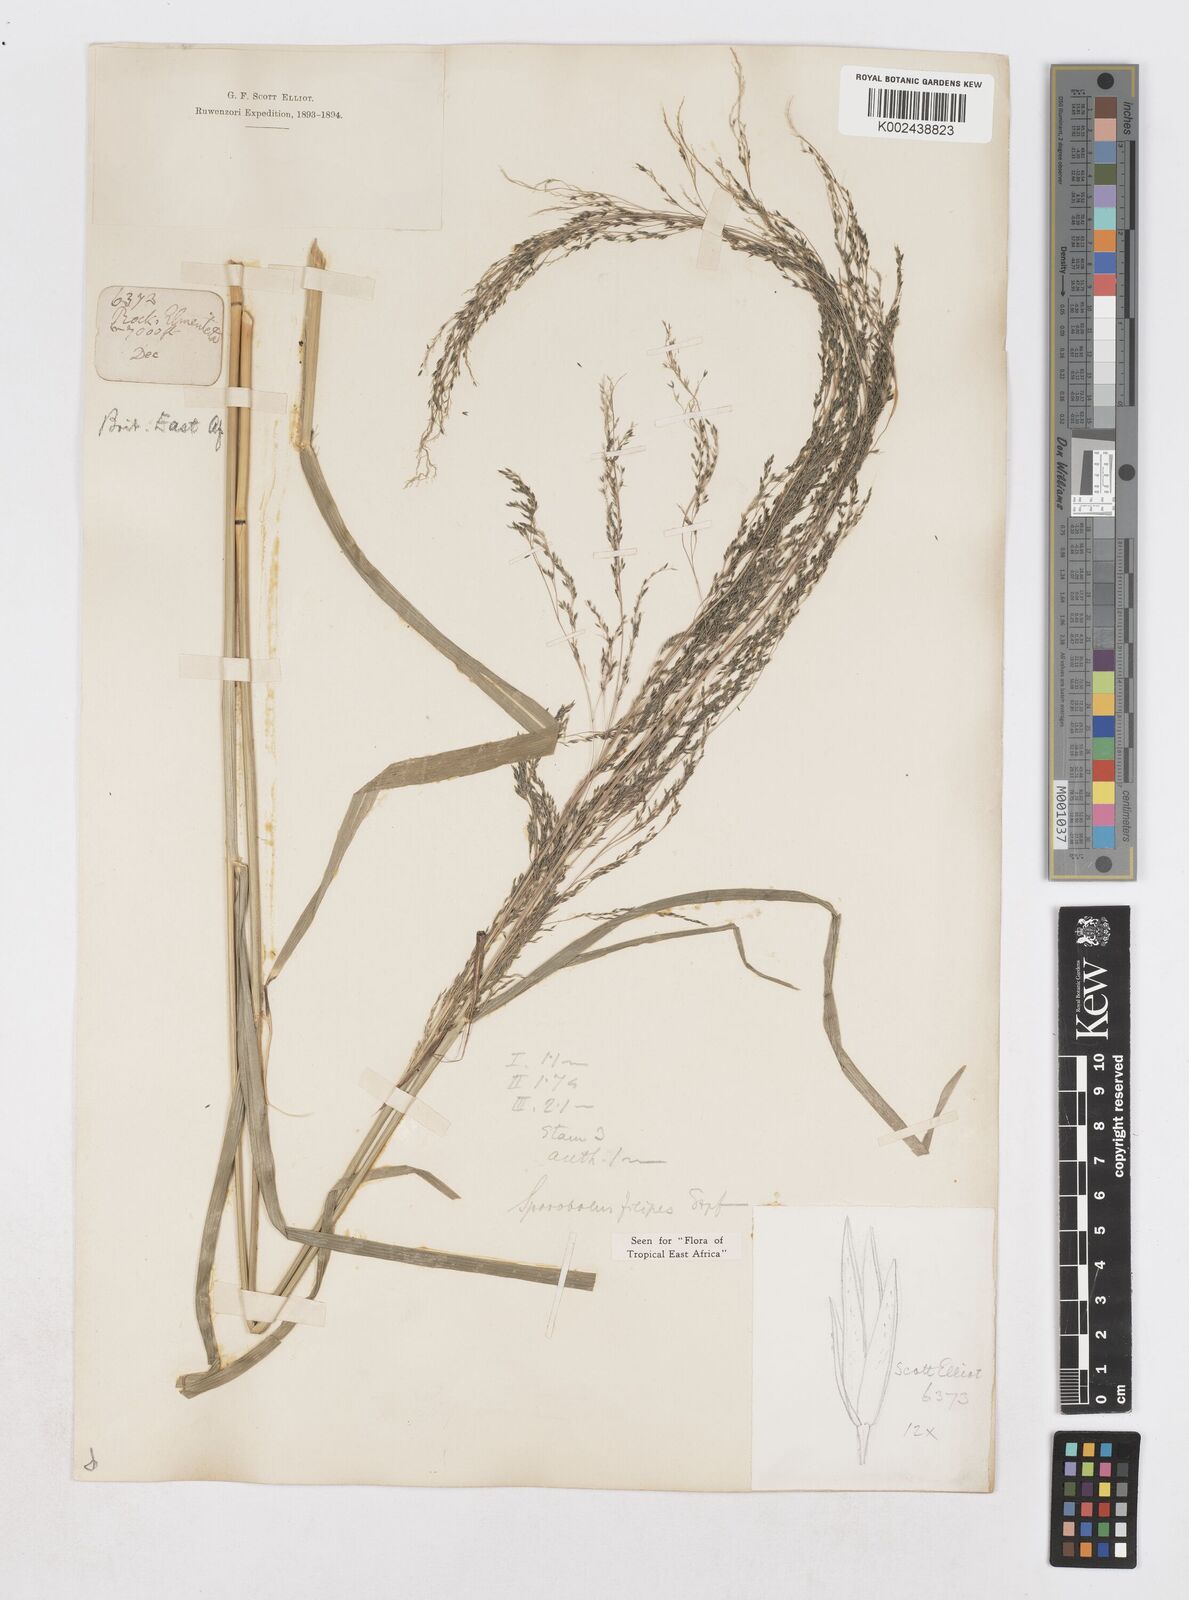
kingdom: Plantae
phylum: Tracheophyta
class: Liliopsida
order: Poales
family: Poaceae
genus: Sporobolus
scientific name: Sporobolus agrostoides
